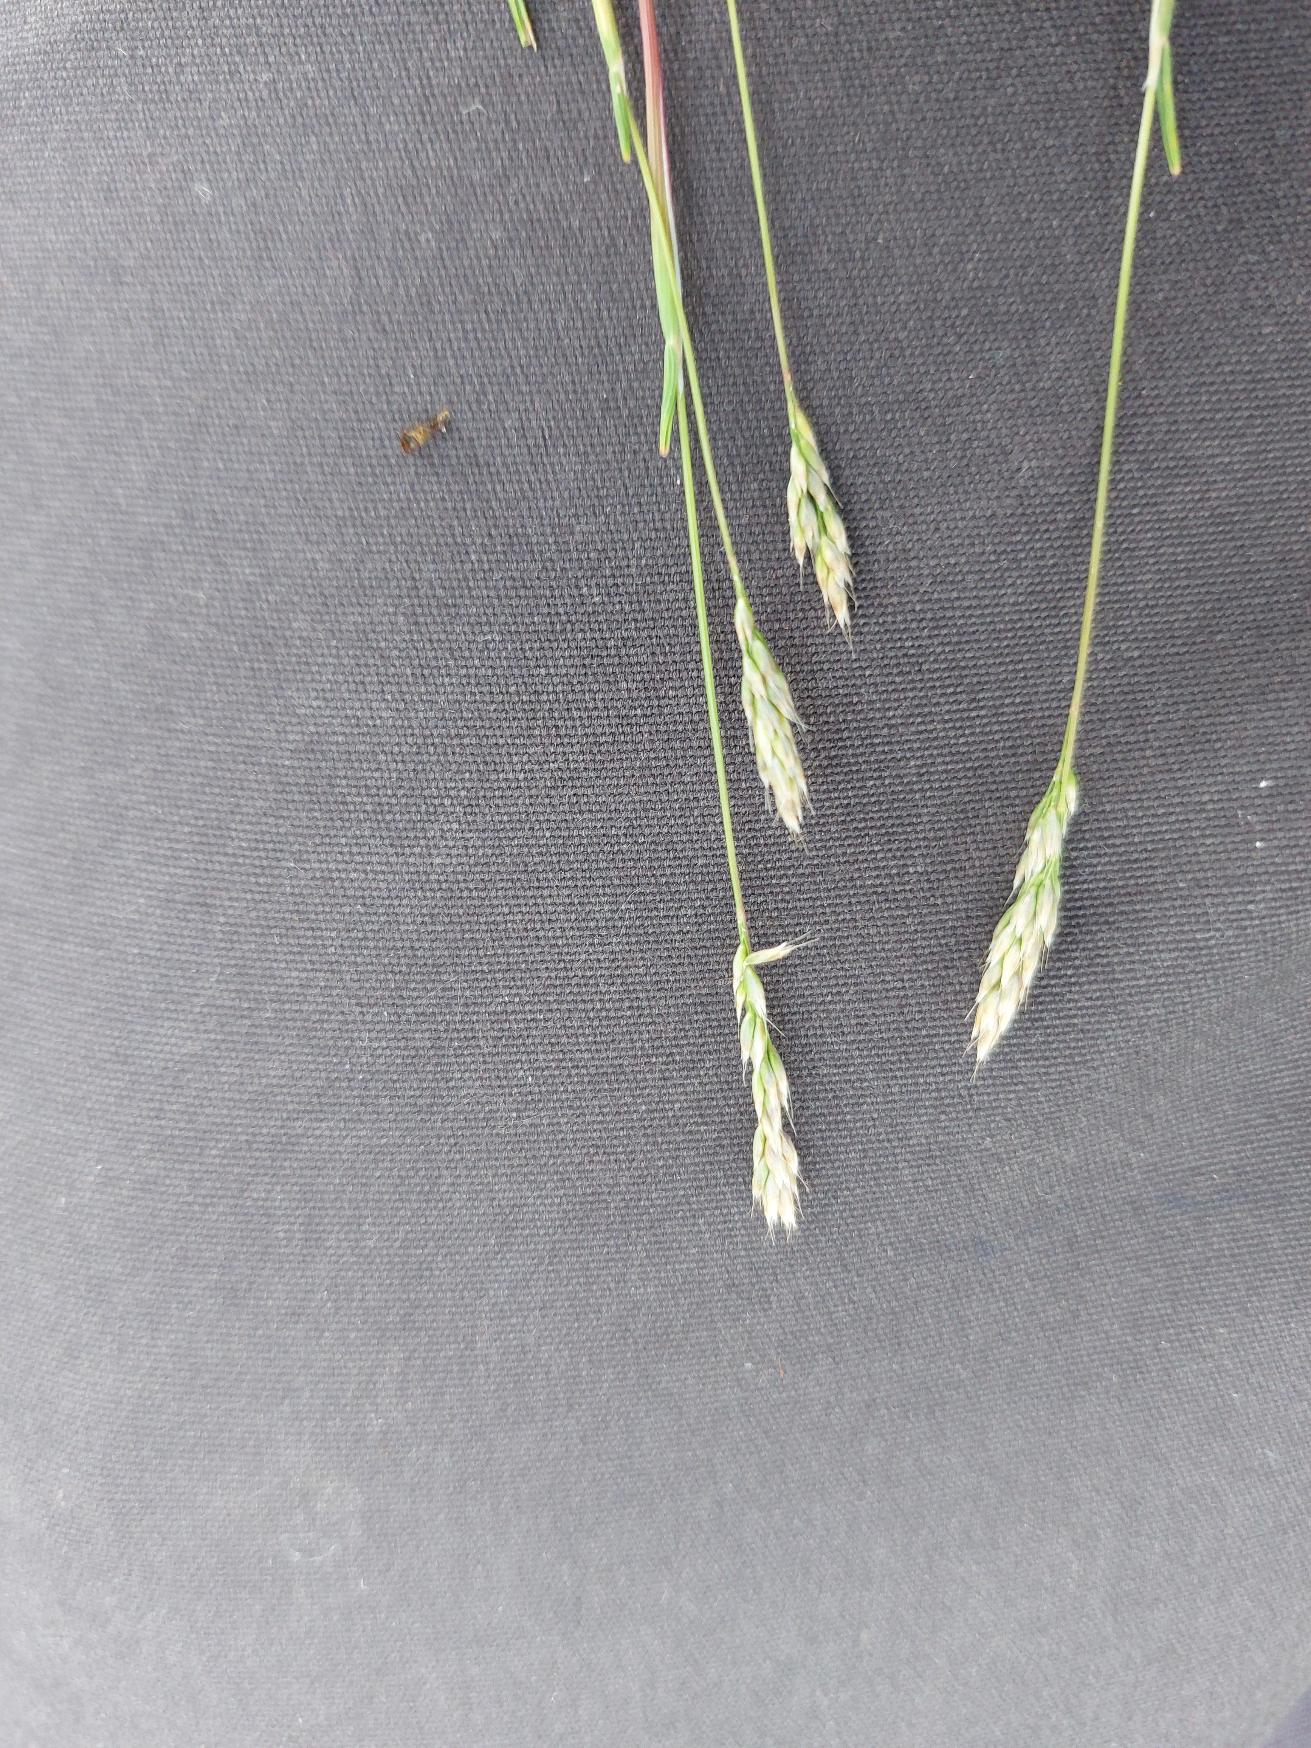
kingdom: Plantae
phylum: Tracheophyta
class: Liliopsida
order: Poales
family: Poaceae
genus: Aira
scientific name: Aira praecox
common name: Tidlig dværgbunke
